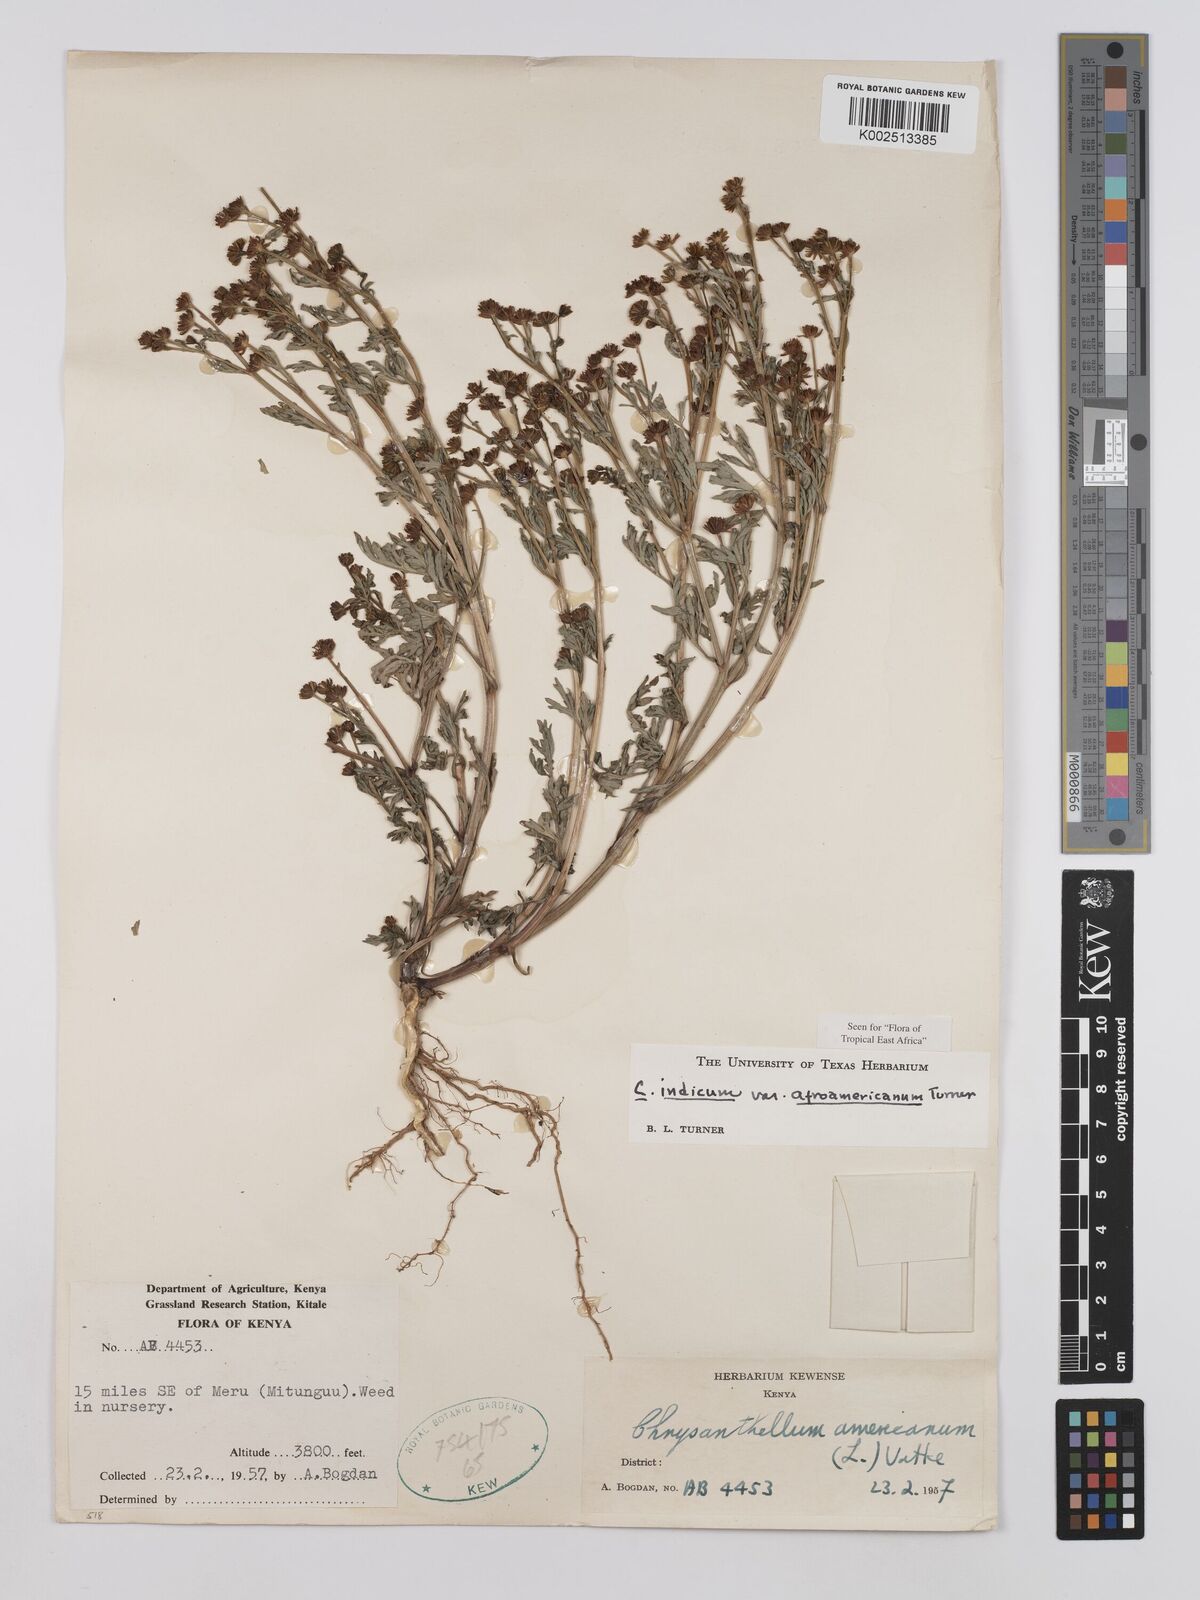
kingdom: Plantae
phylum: Tracheophyta
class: Magnoliopsida
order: Asterales
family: Asteraceae
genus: Chrysanthellum
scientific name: Chrysanthellum indicum
